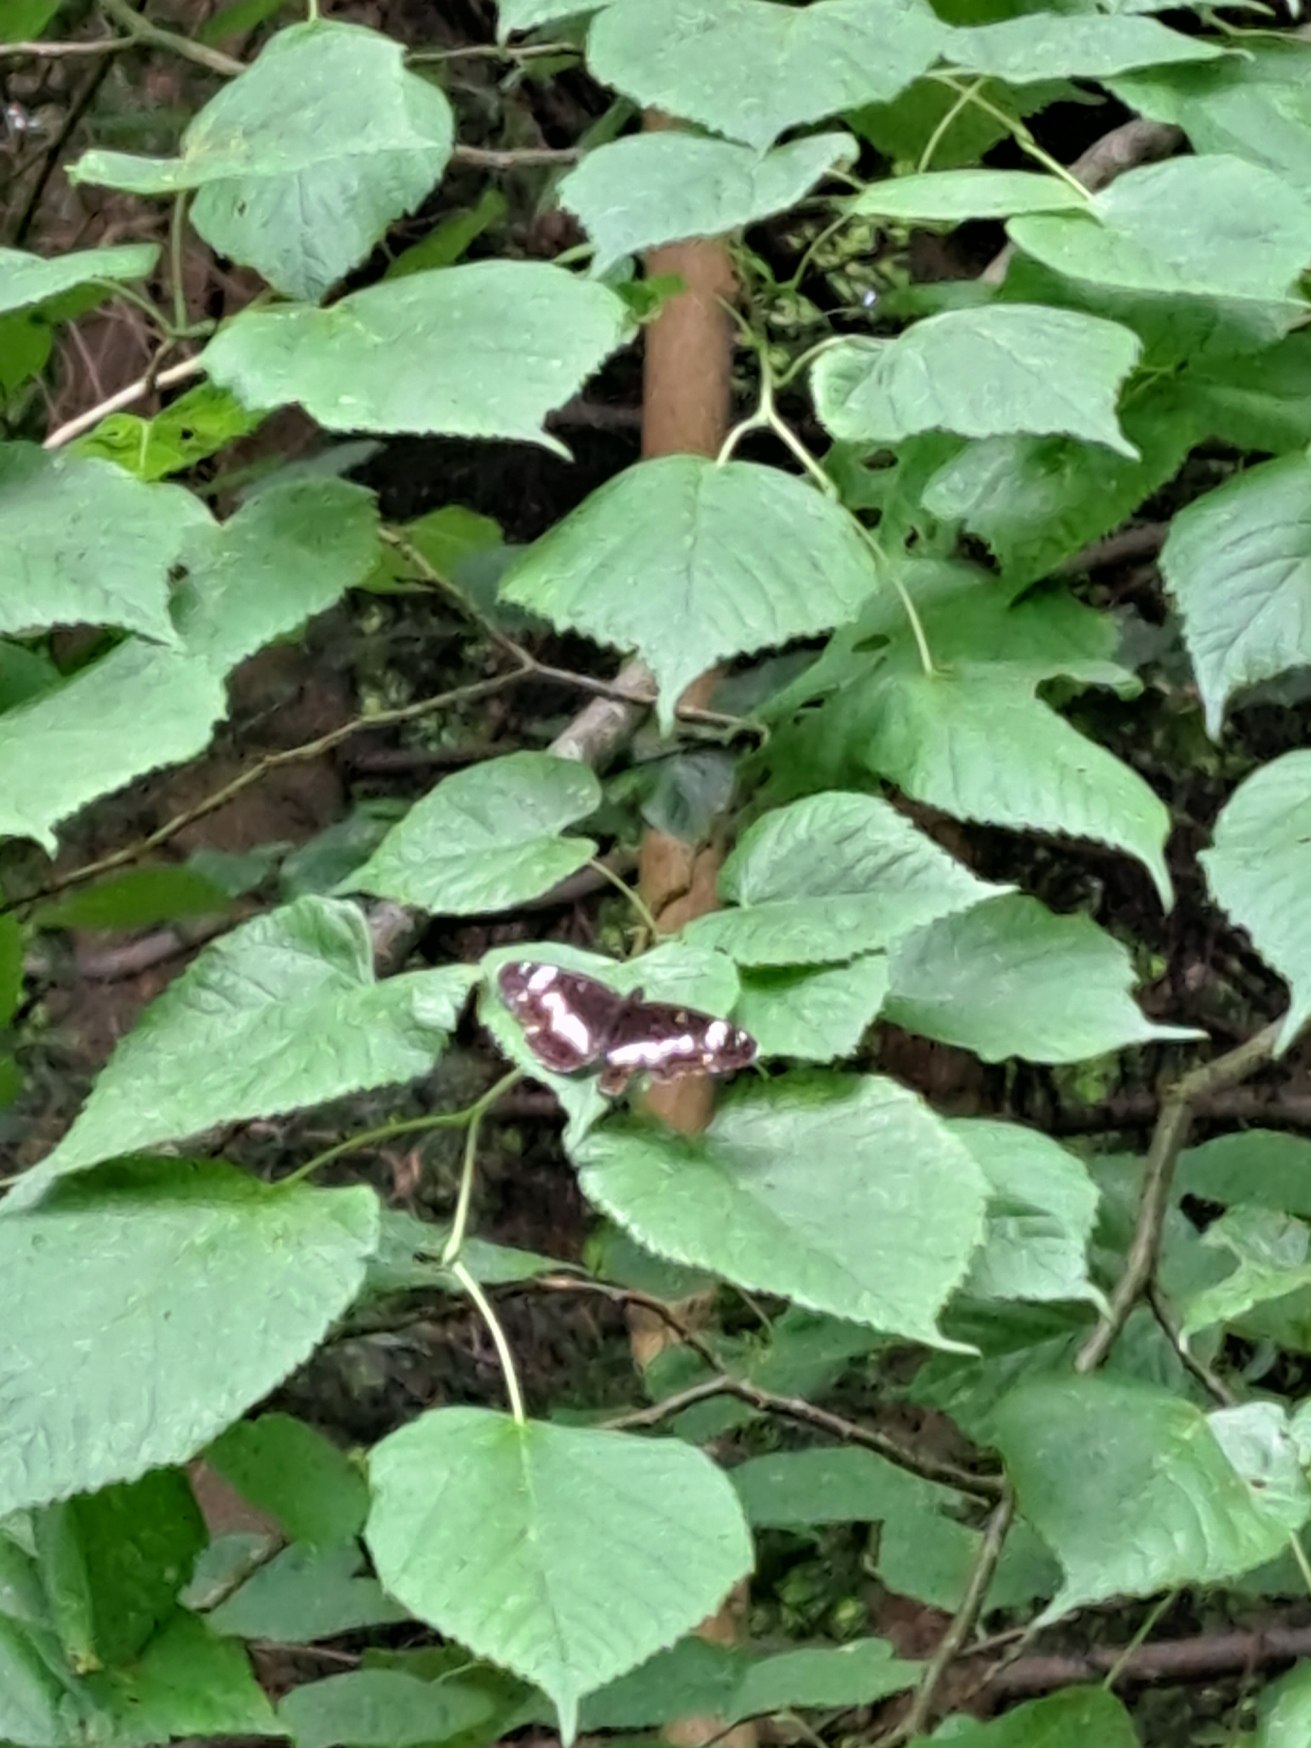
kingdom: Animalia
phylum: Arthropoda
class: Insecta
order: Lepidoptera
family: Nymphalidae
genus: Ladoga
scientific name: Ladoga camilla
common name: Hvid admiral
